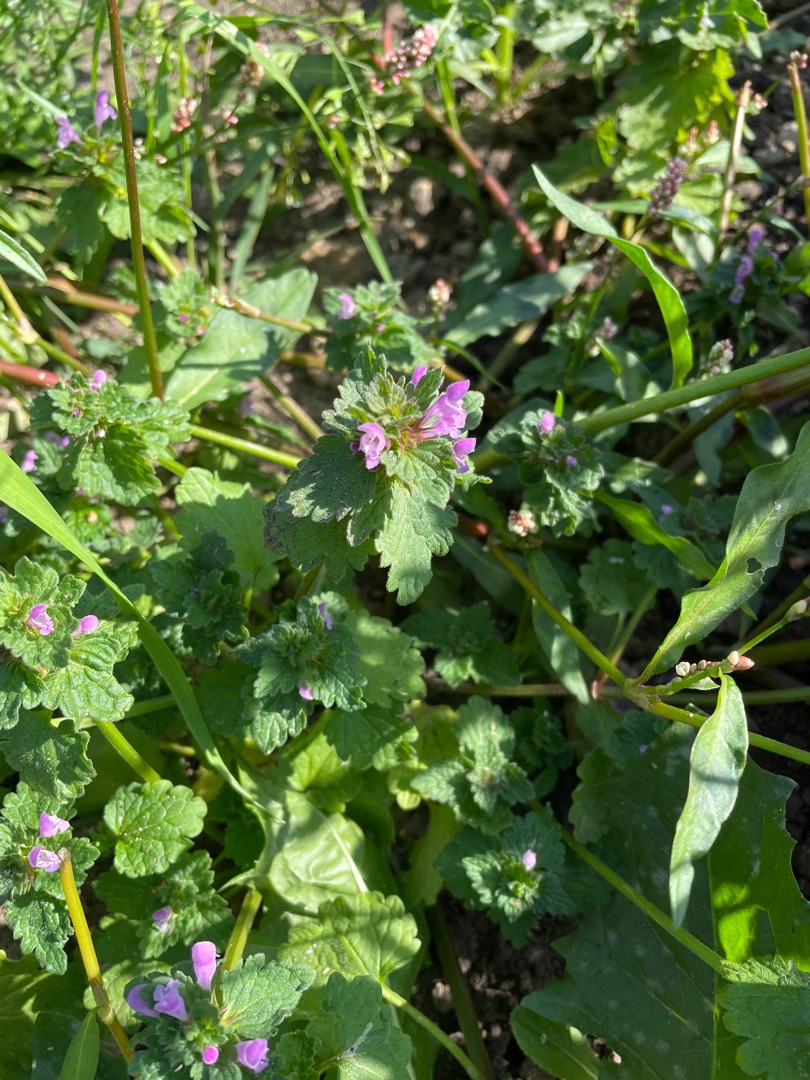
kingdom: Plantae
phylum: Tracheophyta
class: Magnoliopsida
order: Lamiales
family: Lamiaceae
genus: Lamium
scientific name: Lamium purpureum
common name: Rød tvetand
